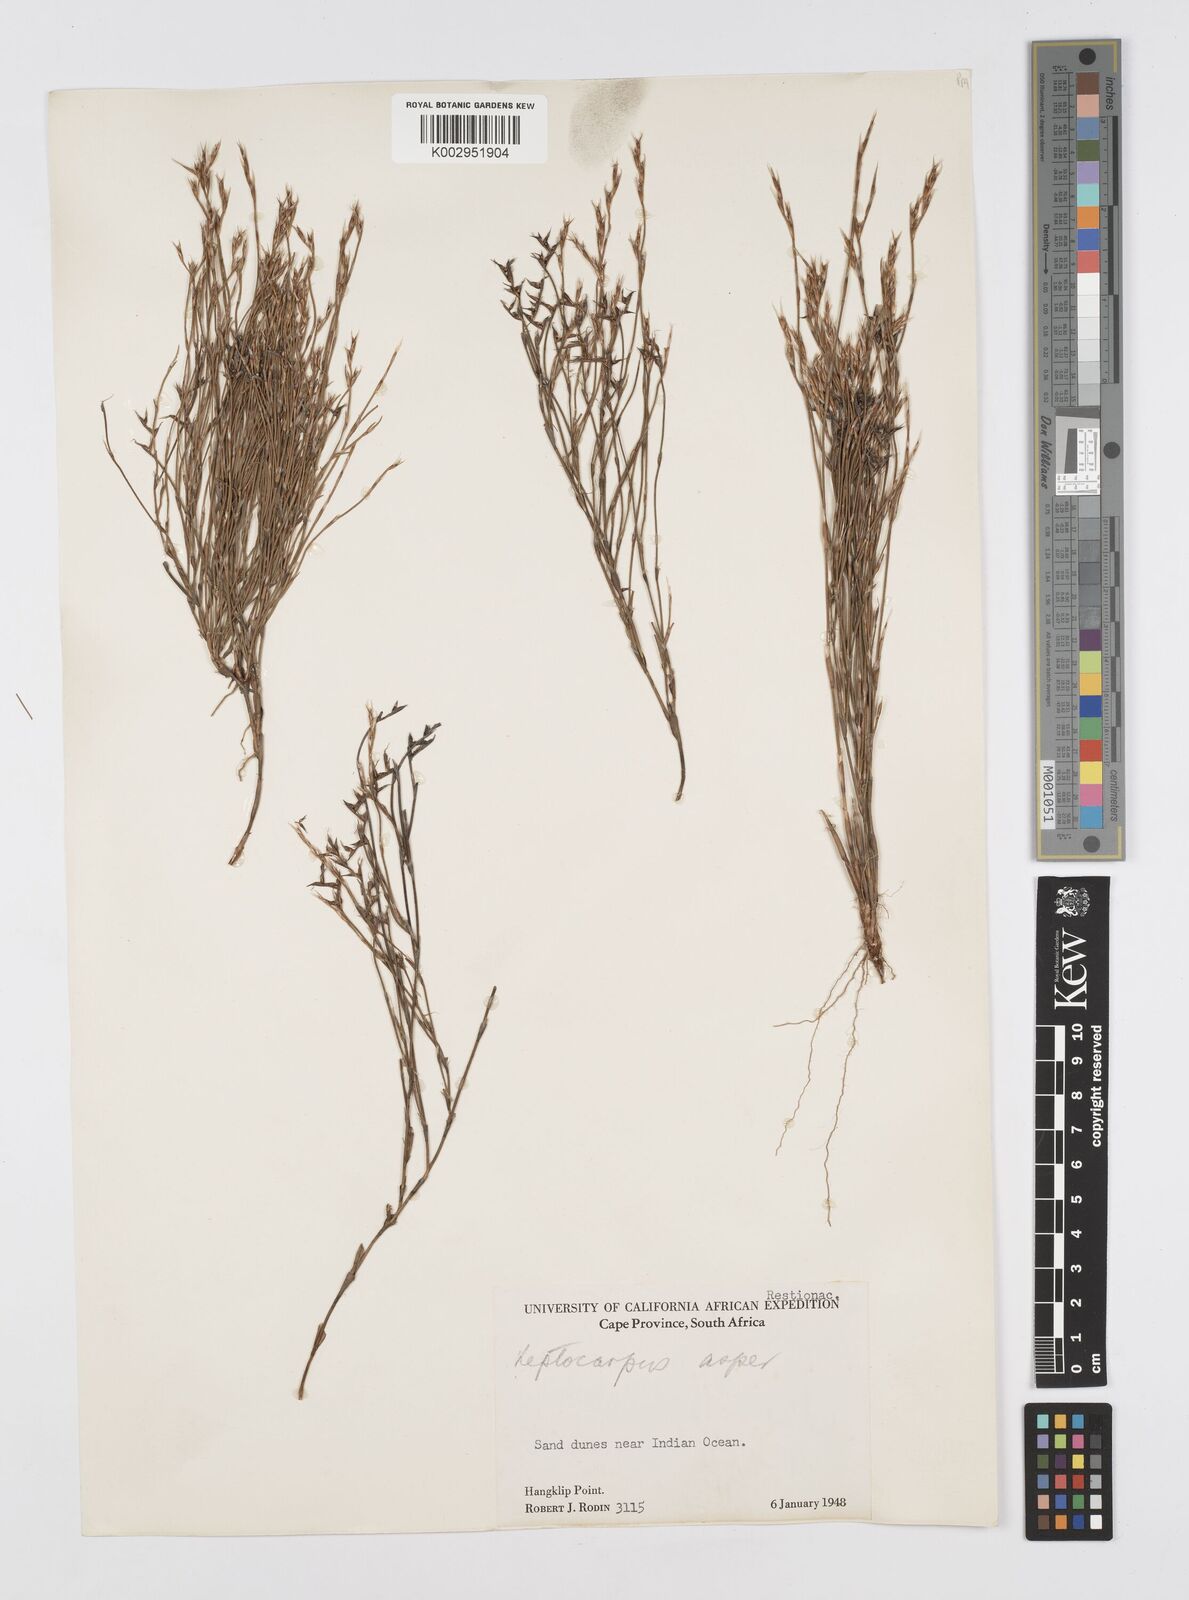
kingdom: Plantae
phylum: Tracheophyta
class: Liliopsida
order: Poales
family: Restionaceae
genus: Restio
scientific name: Restio asperus
